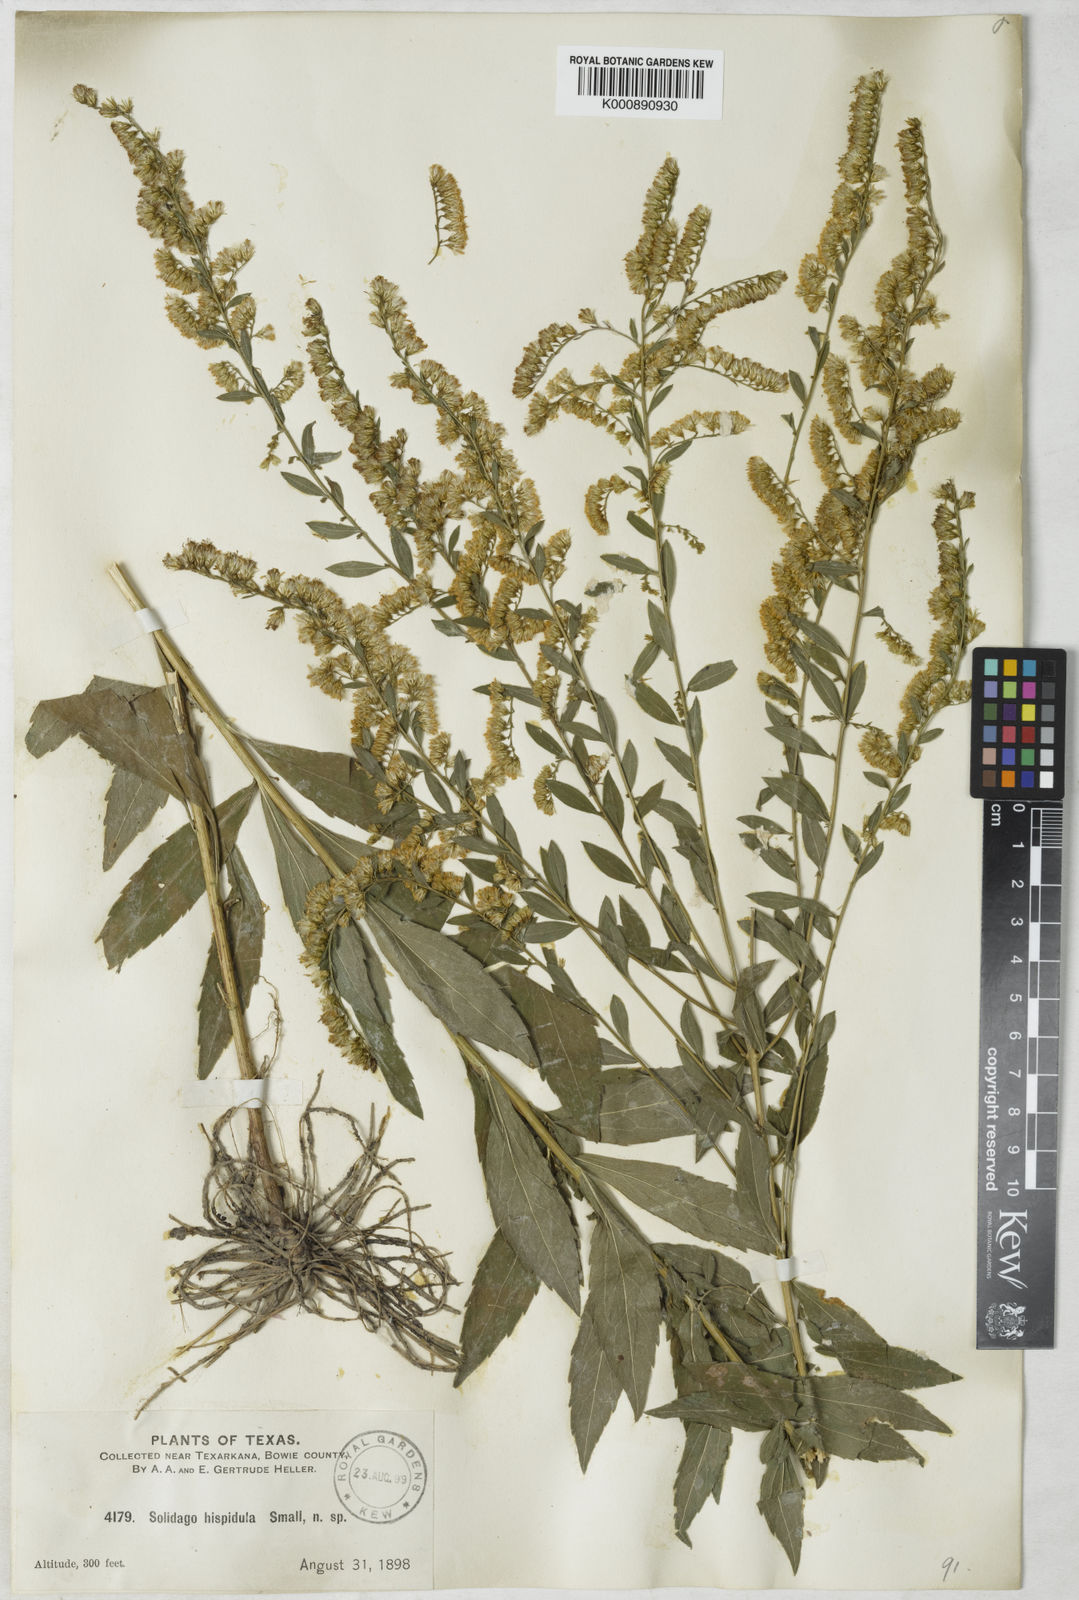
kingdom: Plantae
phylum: Tracheophyta
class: Magnoliopsida
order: Asterales
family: Asteraceae
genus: Solidago
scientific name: Solidago
